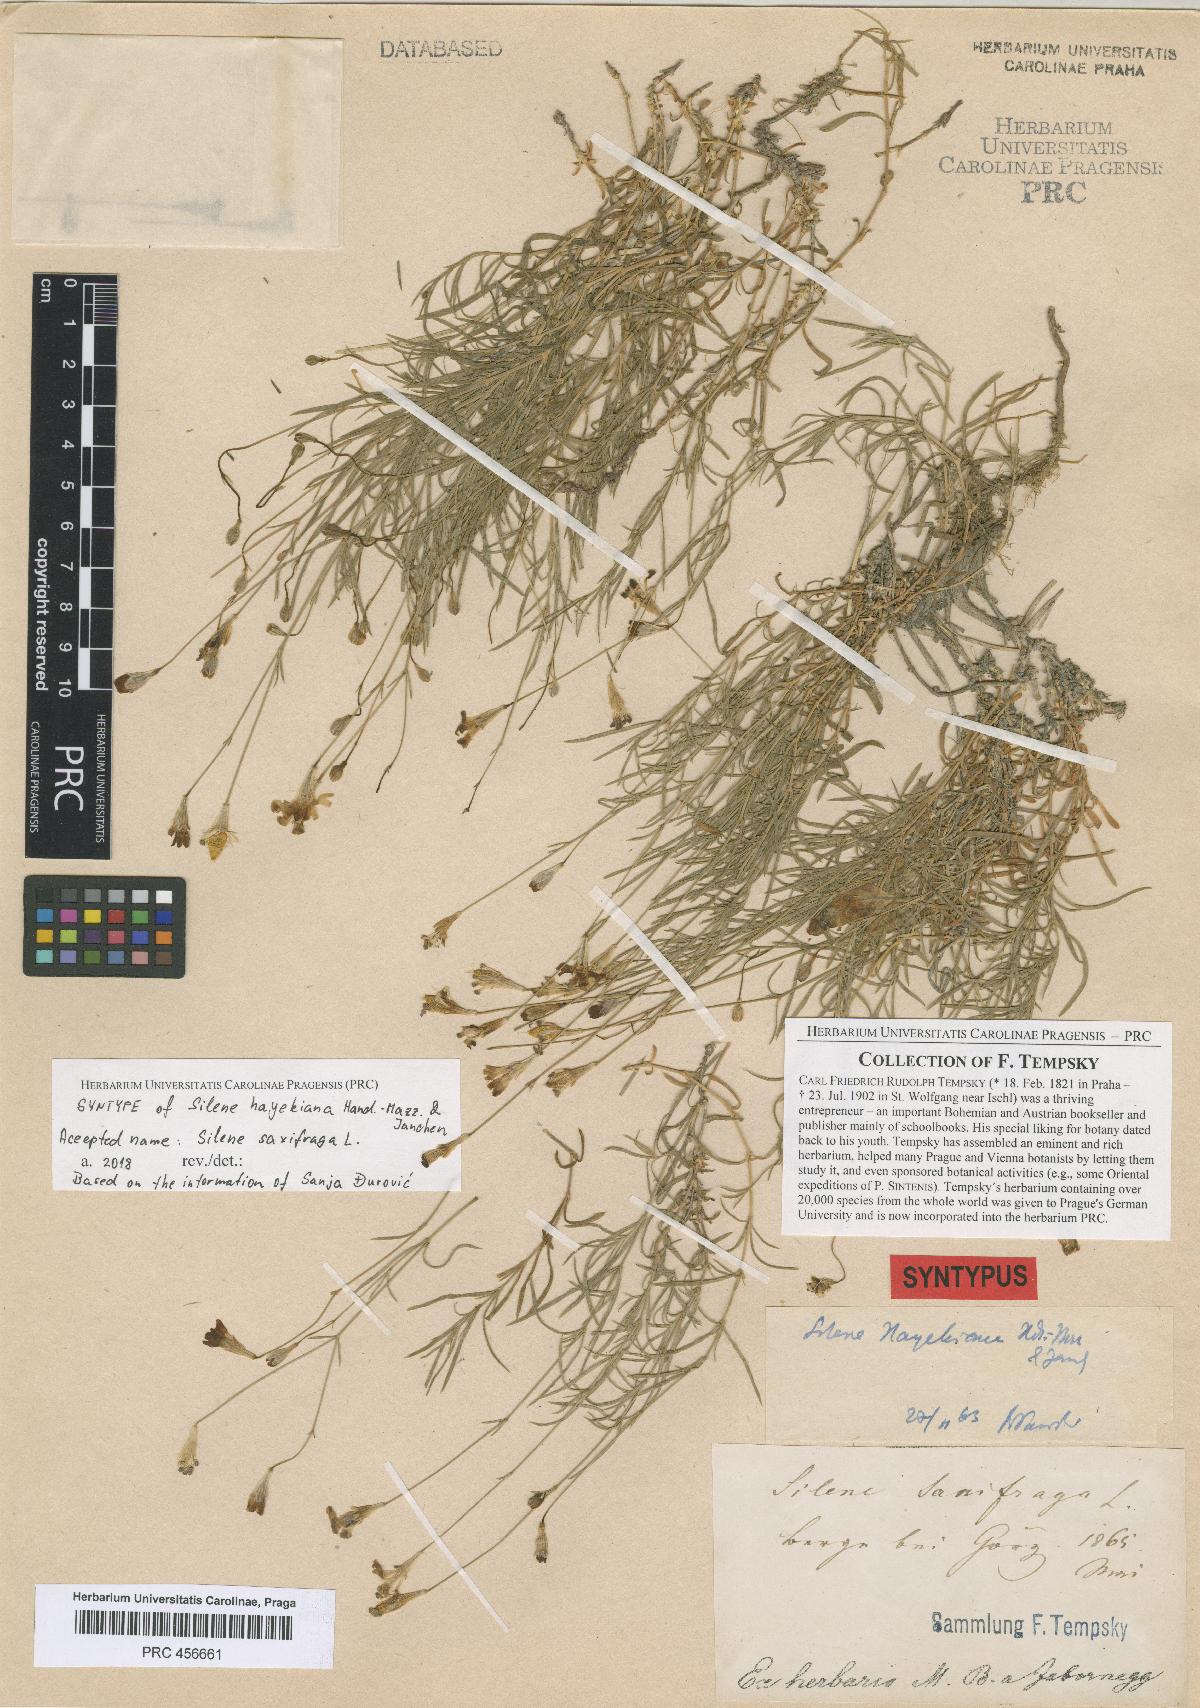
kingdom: Plantae
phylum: Tracheophyta
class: Magnoliopsida
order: Caryophyllales
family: Caryophyllaceae
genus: Silene
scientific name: Silene hayekiana
